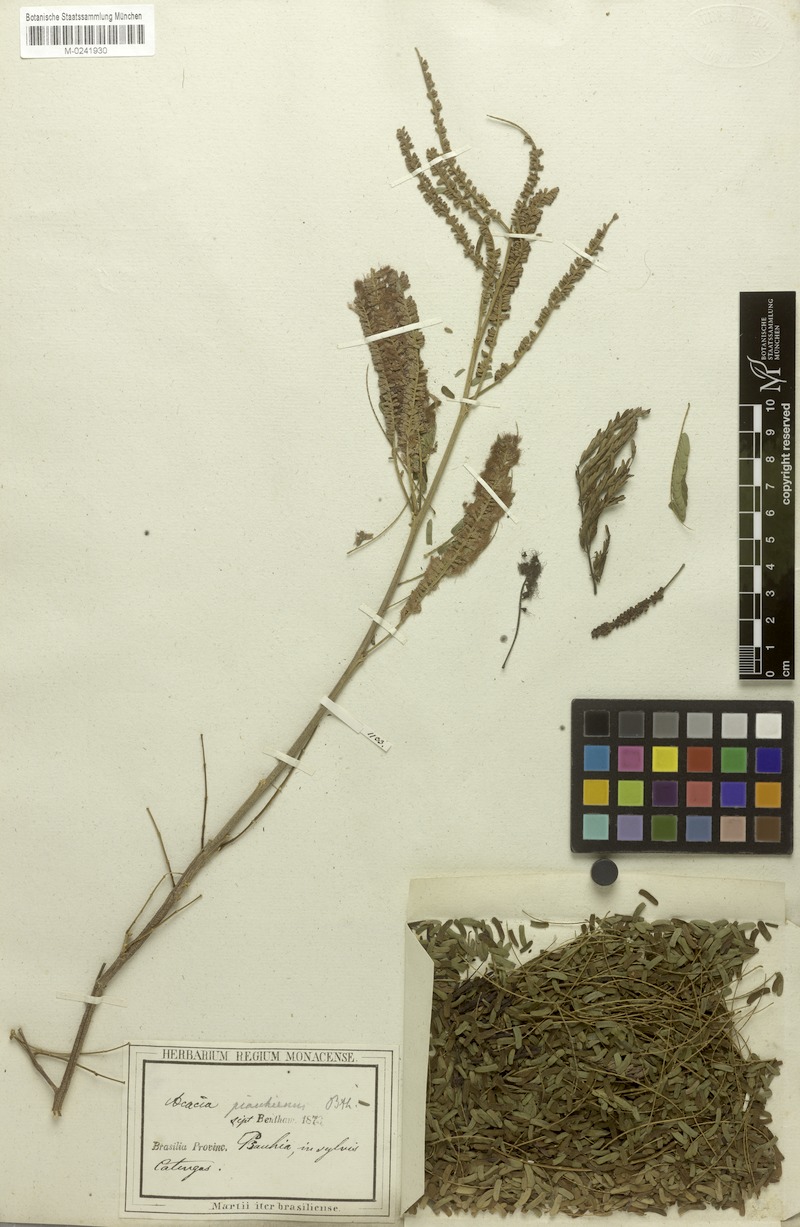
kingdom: Plantae
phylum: Tracheophyta
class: Magnoliopsida
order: Fabales
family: Fabaceae
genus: Senegalia
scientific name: Senegalia piauhiensis
